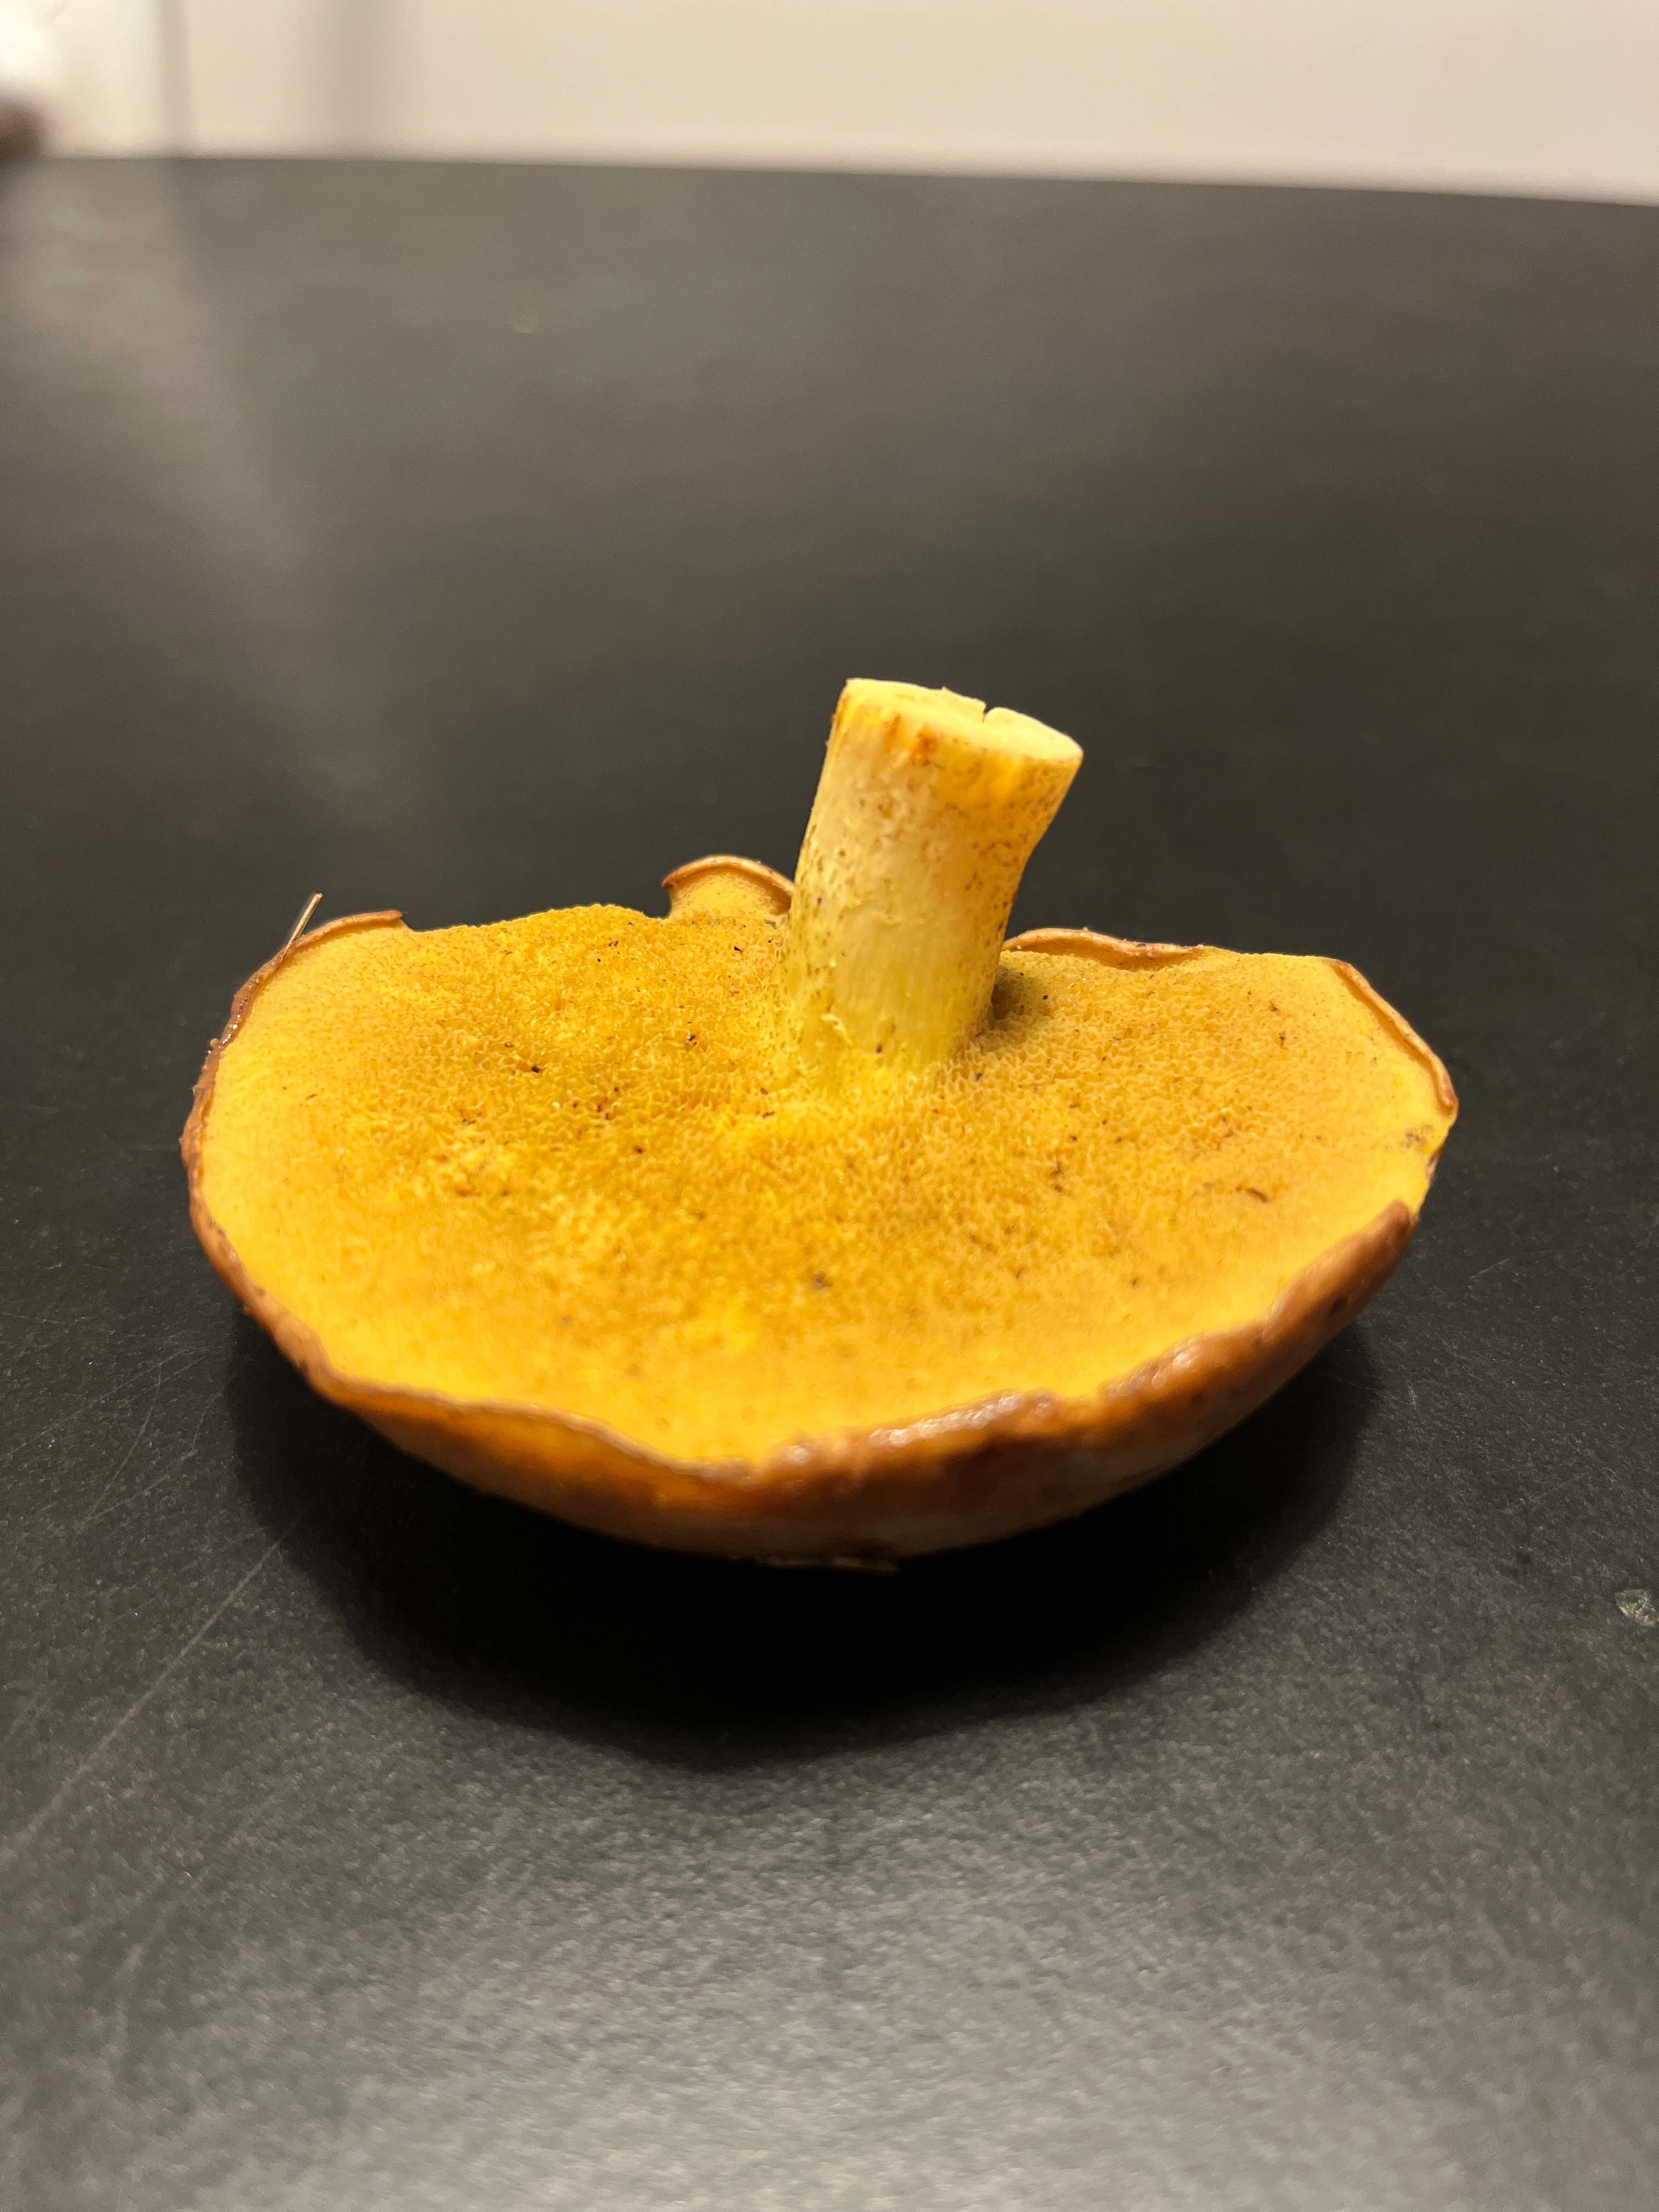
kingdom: Fungi
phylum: Basidiomycota
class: Agaricomycetes
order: Boletales
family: Suillaceae
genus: Suillus
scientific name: Suillus grevillei
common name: lærke-slimrørhat
